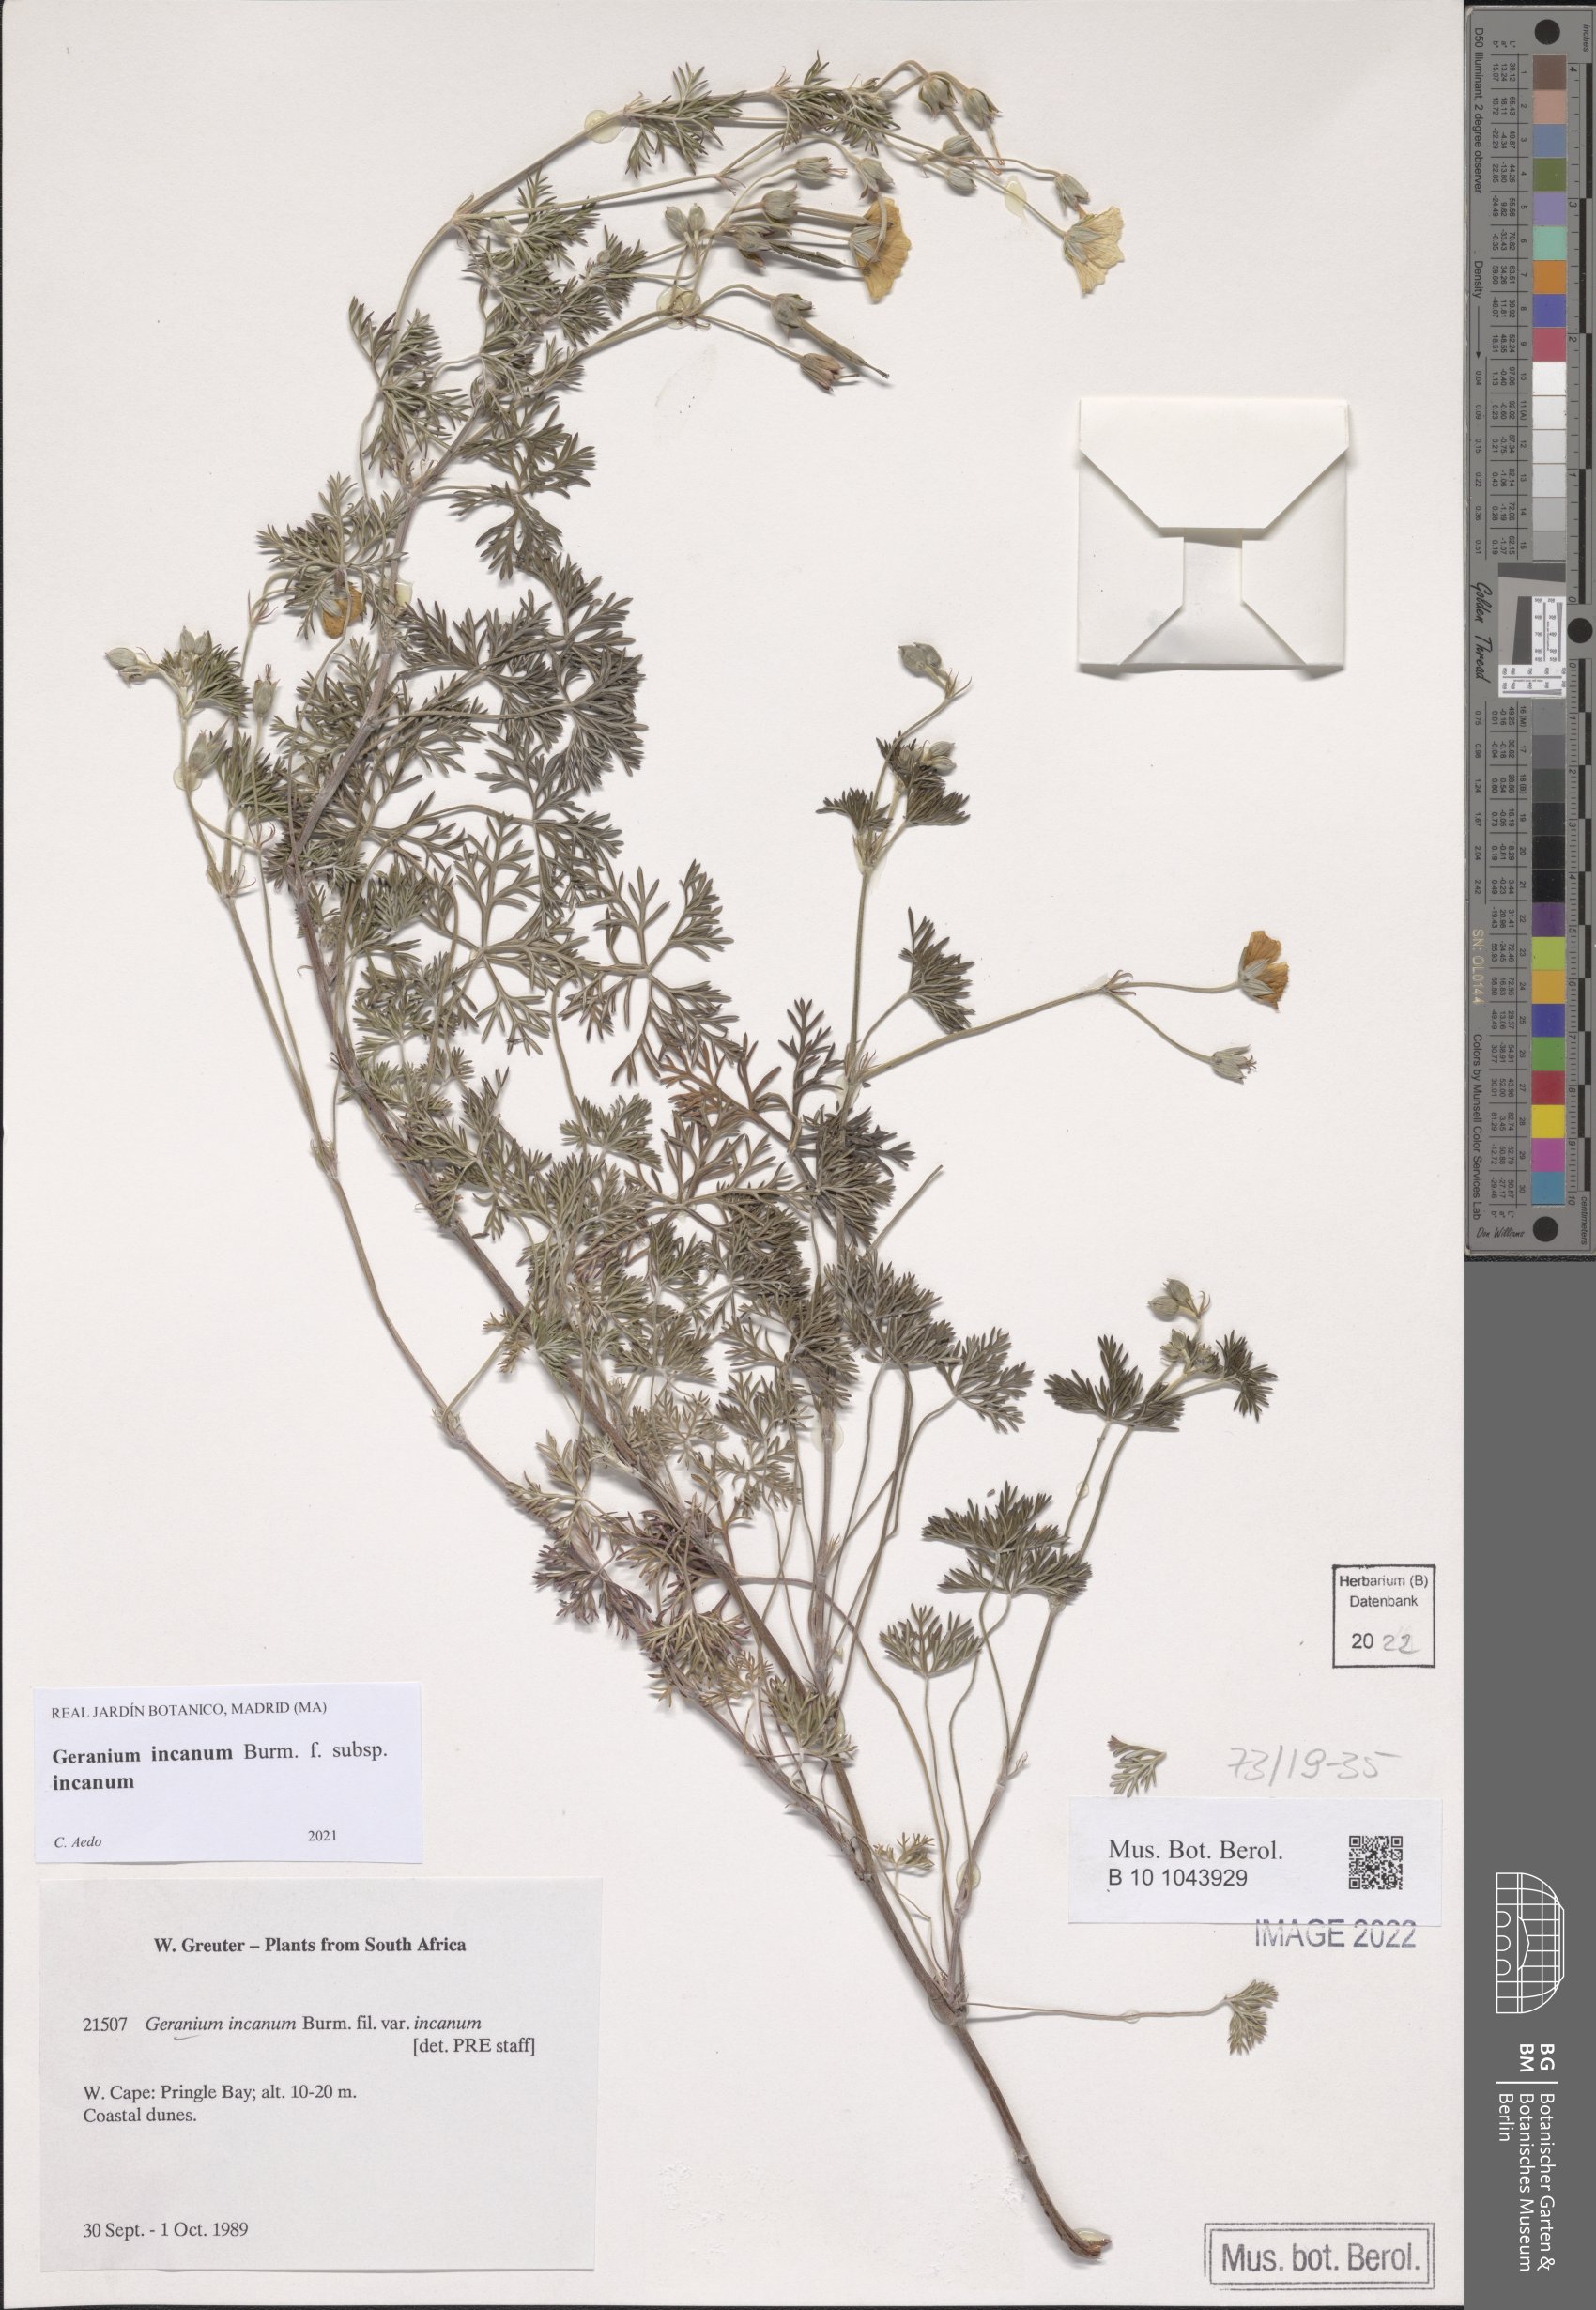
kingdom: Plantae
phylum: Tracheophyta
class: Magnoliopsida
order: Geraniales
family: Geraniaceae
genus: Geranium
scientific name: Geranium incanum
